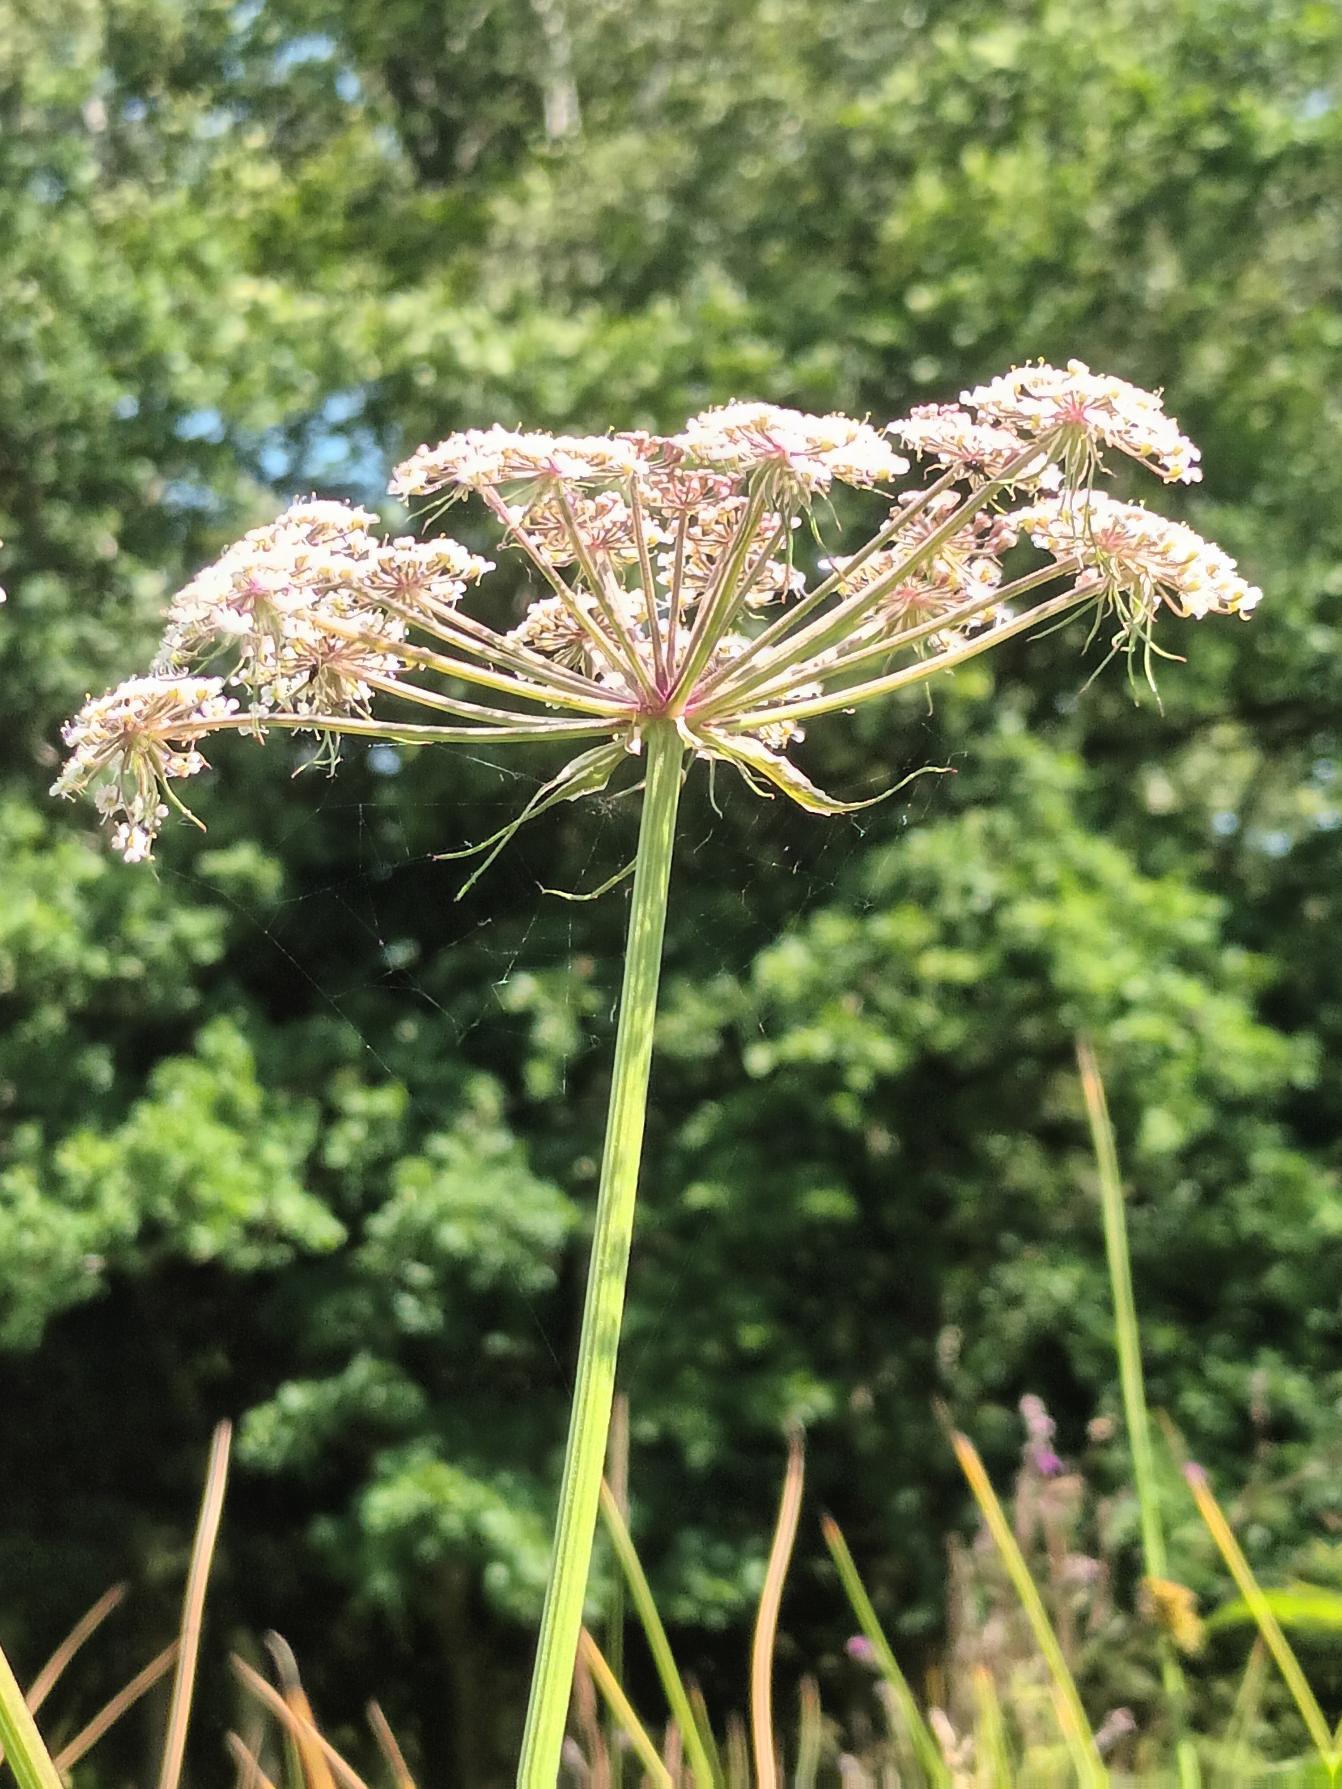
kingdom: Plantae
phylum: Tracheophyta
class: Magnoliopsida
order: Apiales
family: Apiaceae
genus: Thysselinum
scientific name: Thysselinum palustre
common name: Kær-svovlrod
